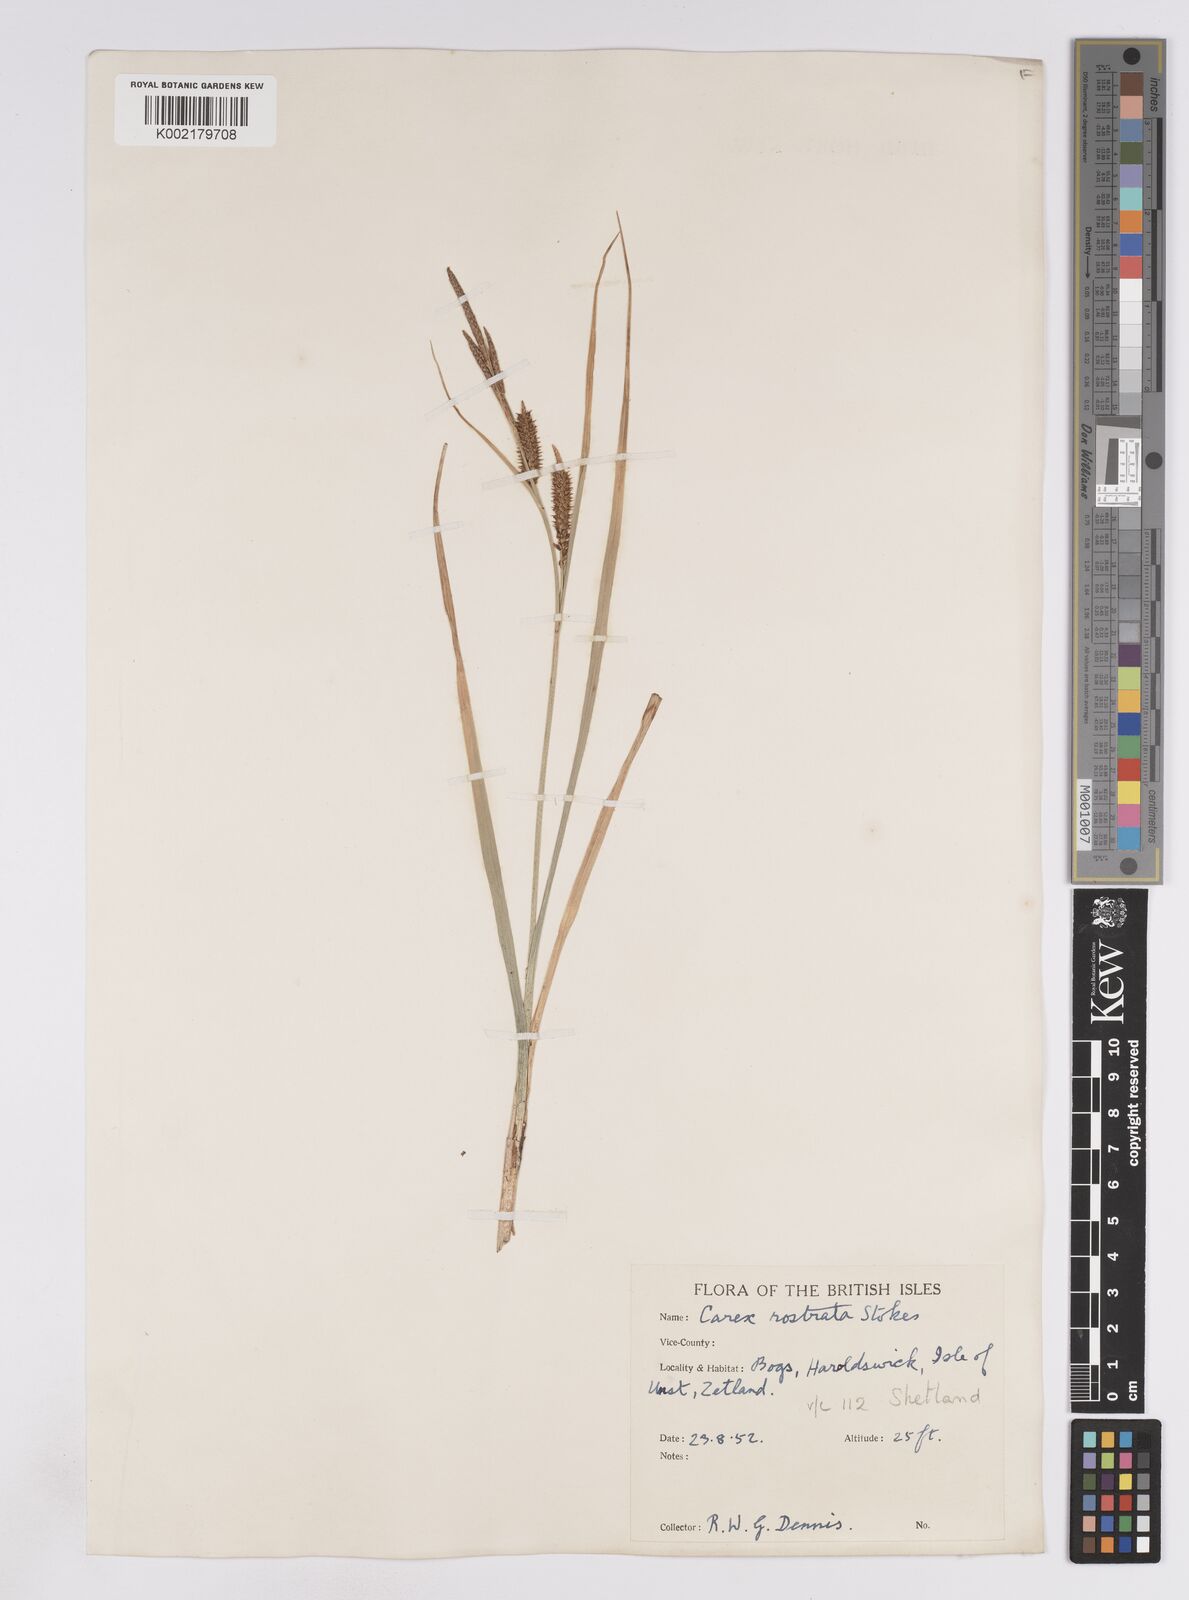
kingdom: Plantae
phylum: Tracheophyta
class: Liliopsida
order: Poales
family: Cyperaceae
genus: Carex
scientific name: Carex rostrata
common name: Bottle sedge
